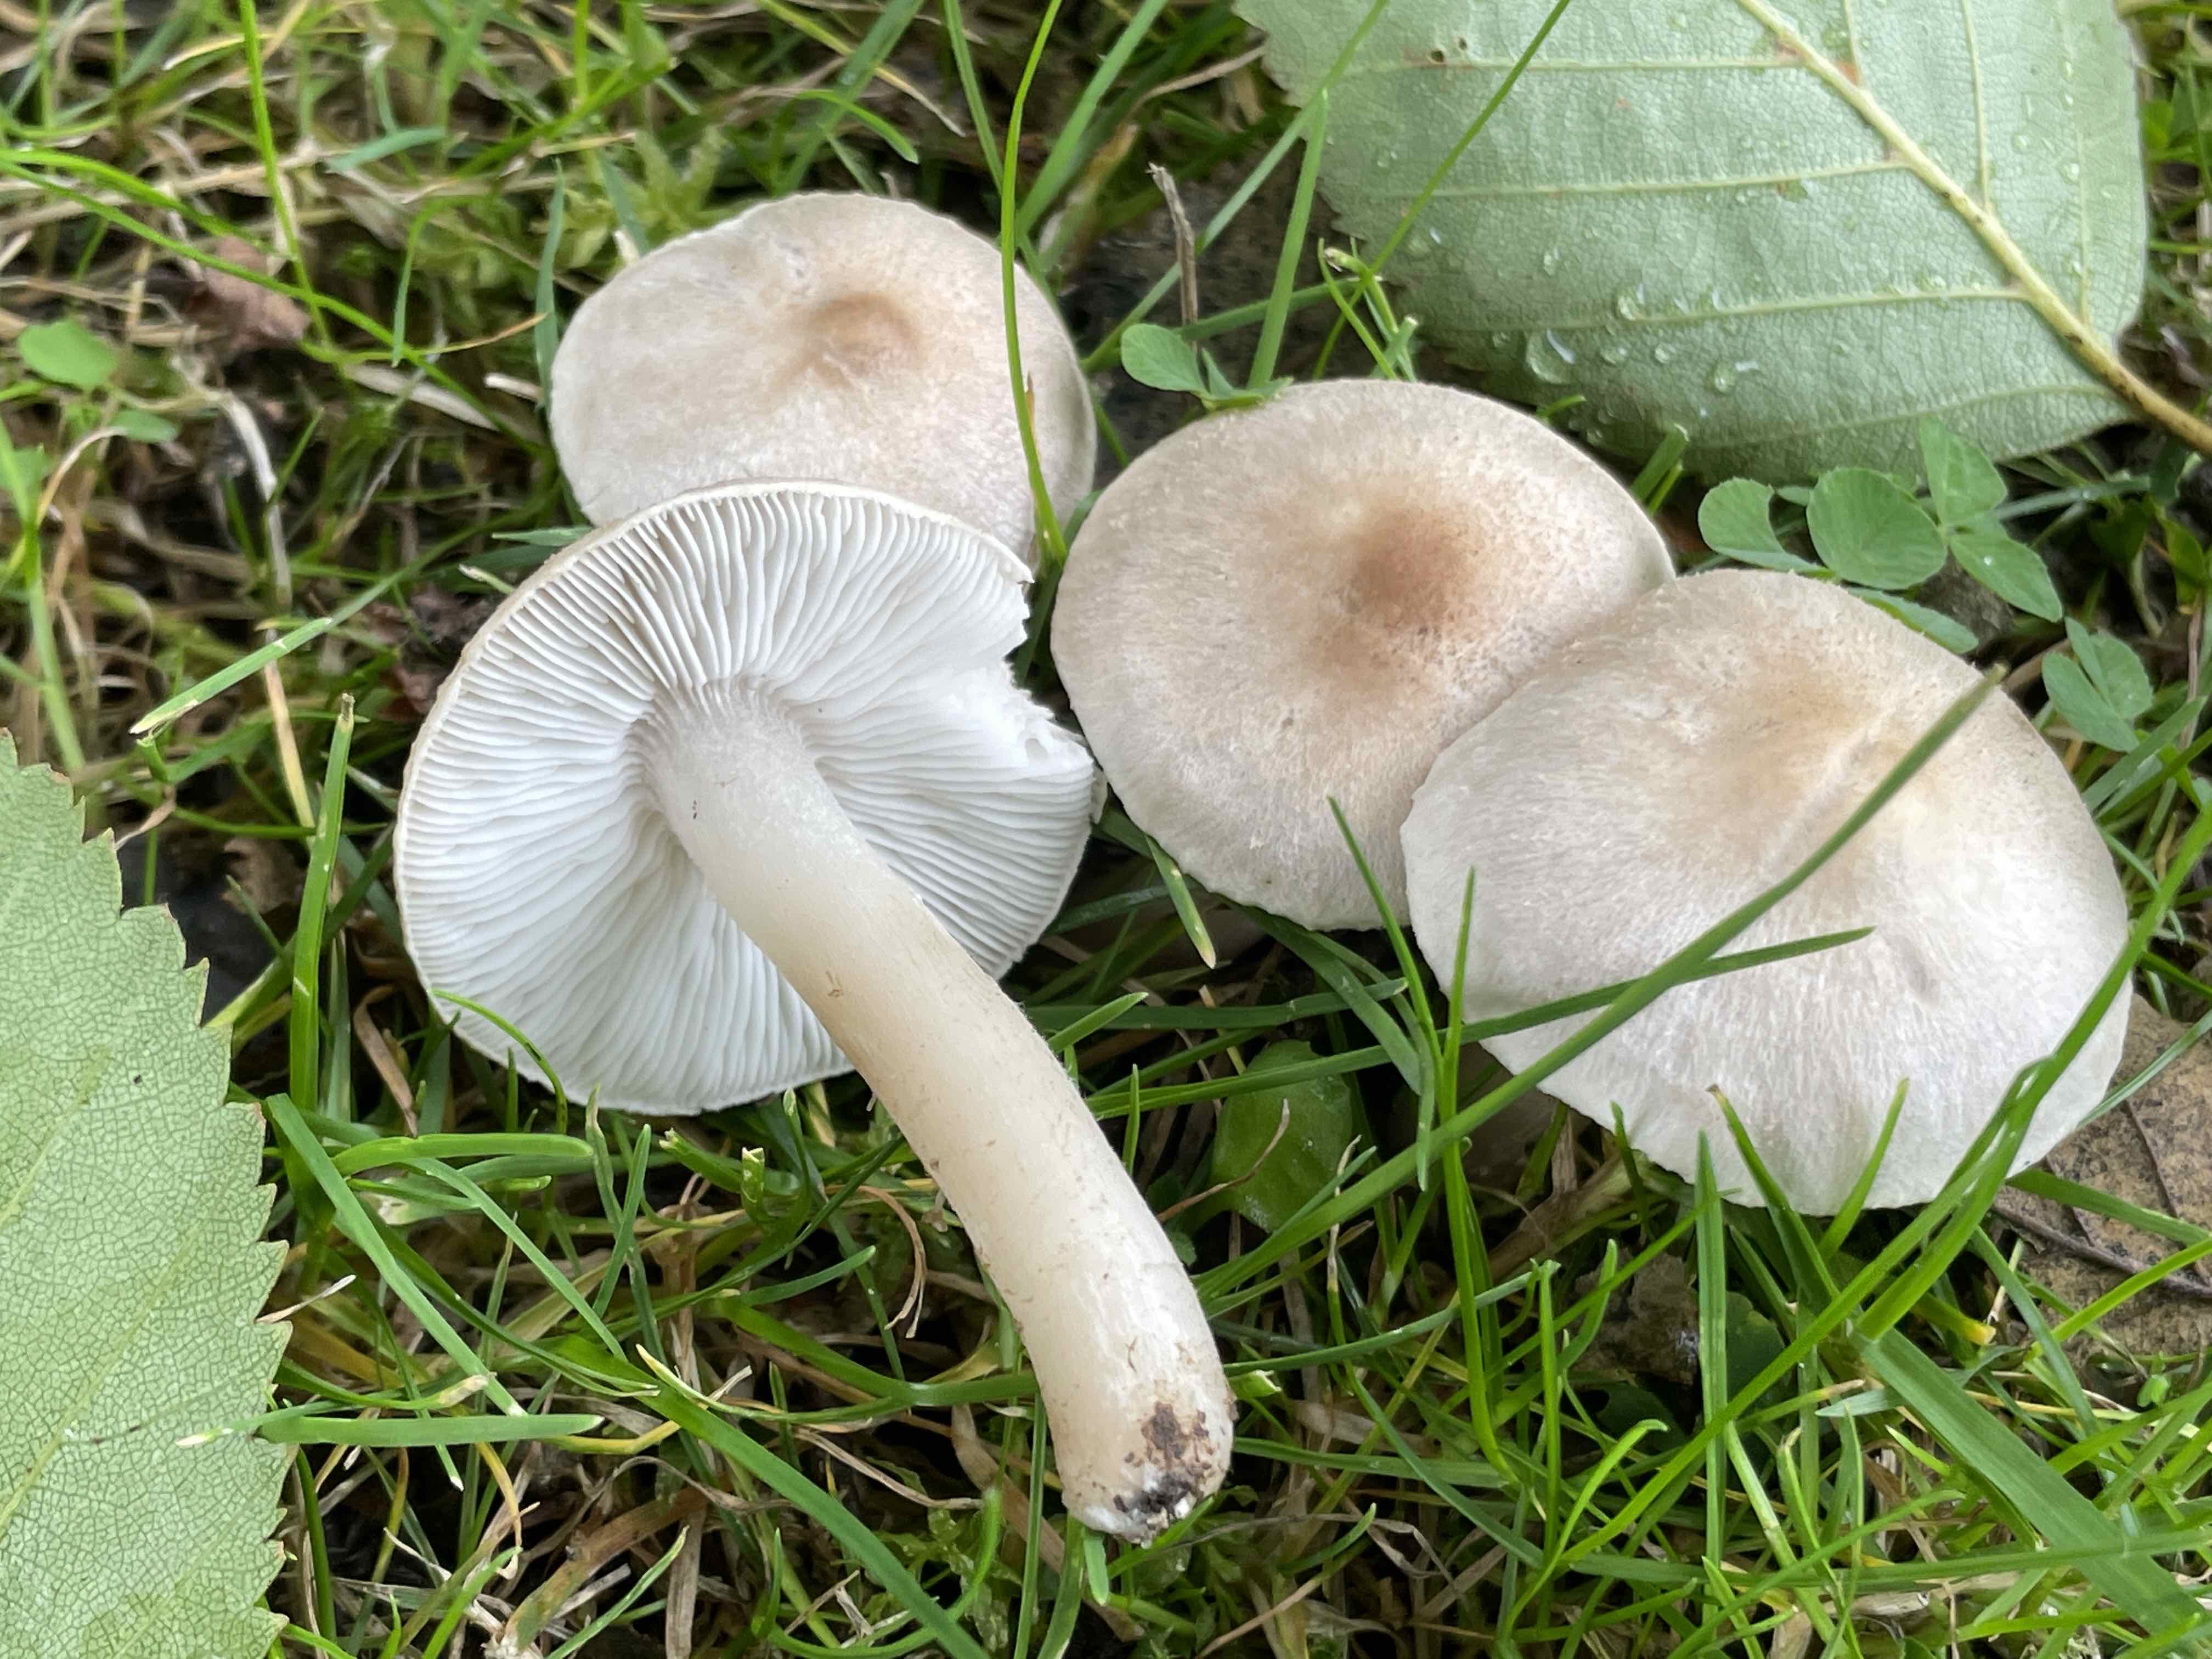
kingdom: Fungi
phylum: Basidiomycota
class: Agaricomycetes
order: Agaricales
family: Tricholomataceae
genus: Tricholoma
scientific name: Tricholoma argyraceum
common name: spids ridderhat
